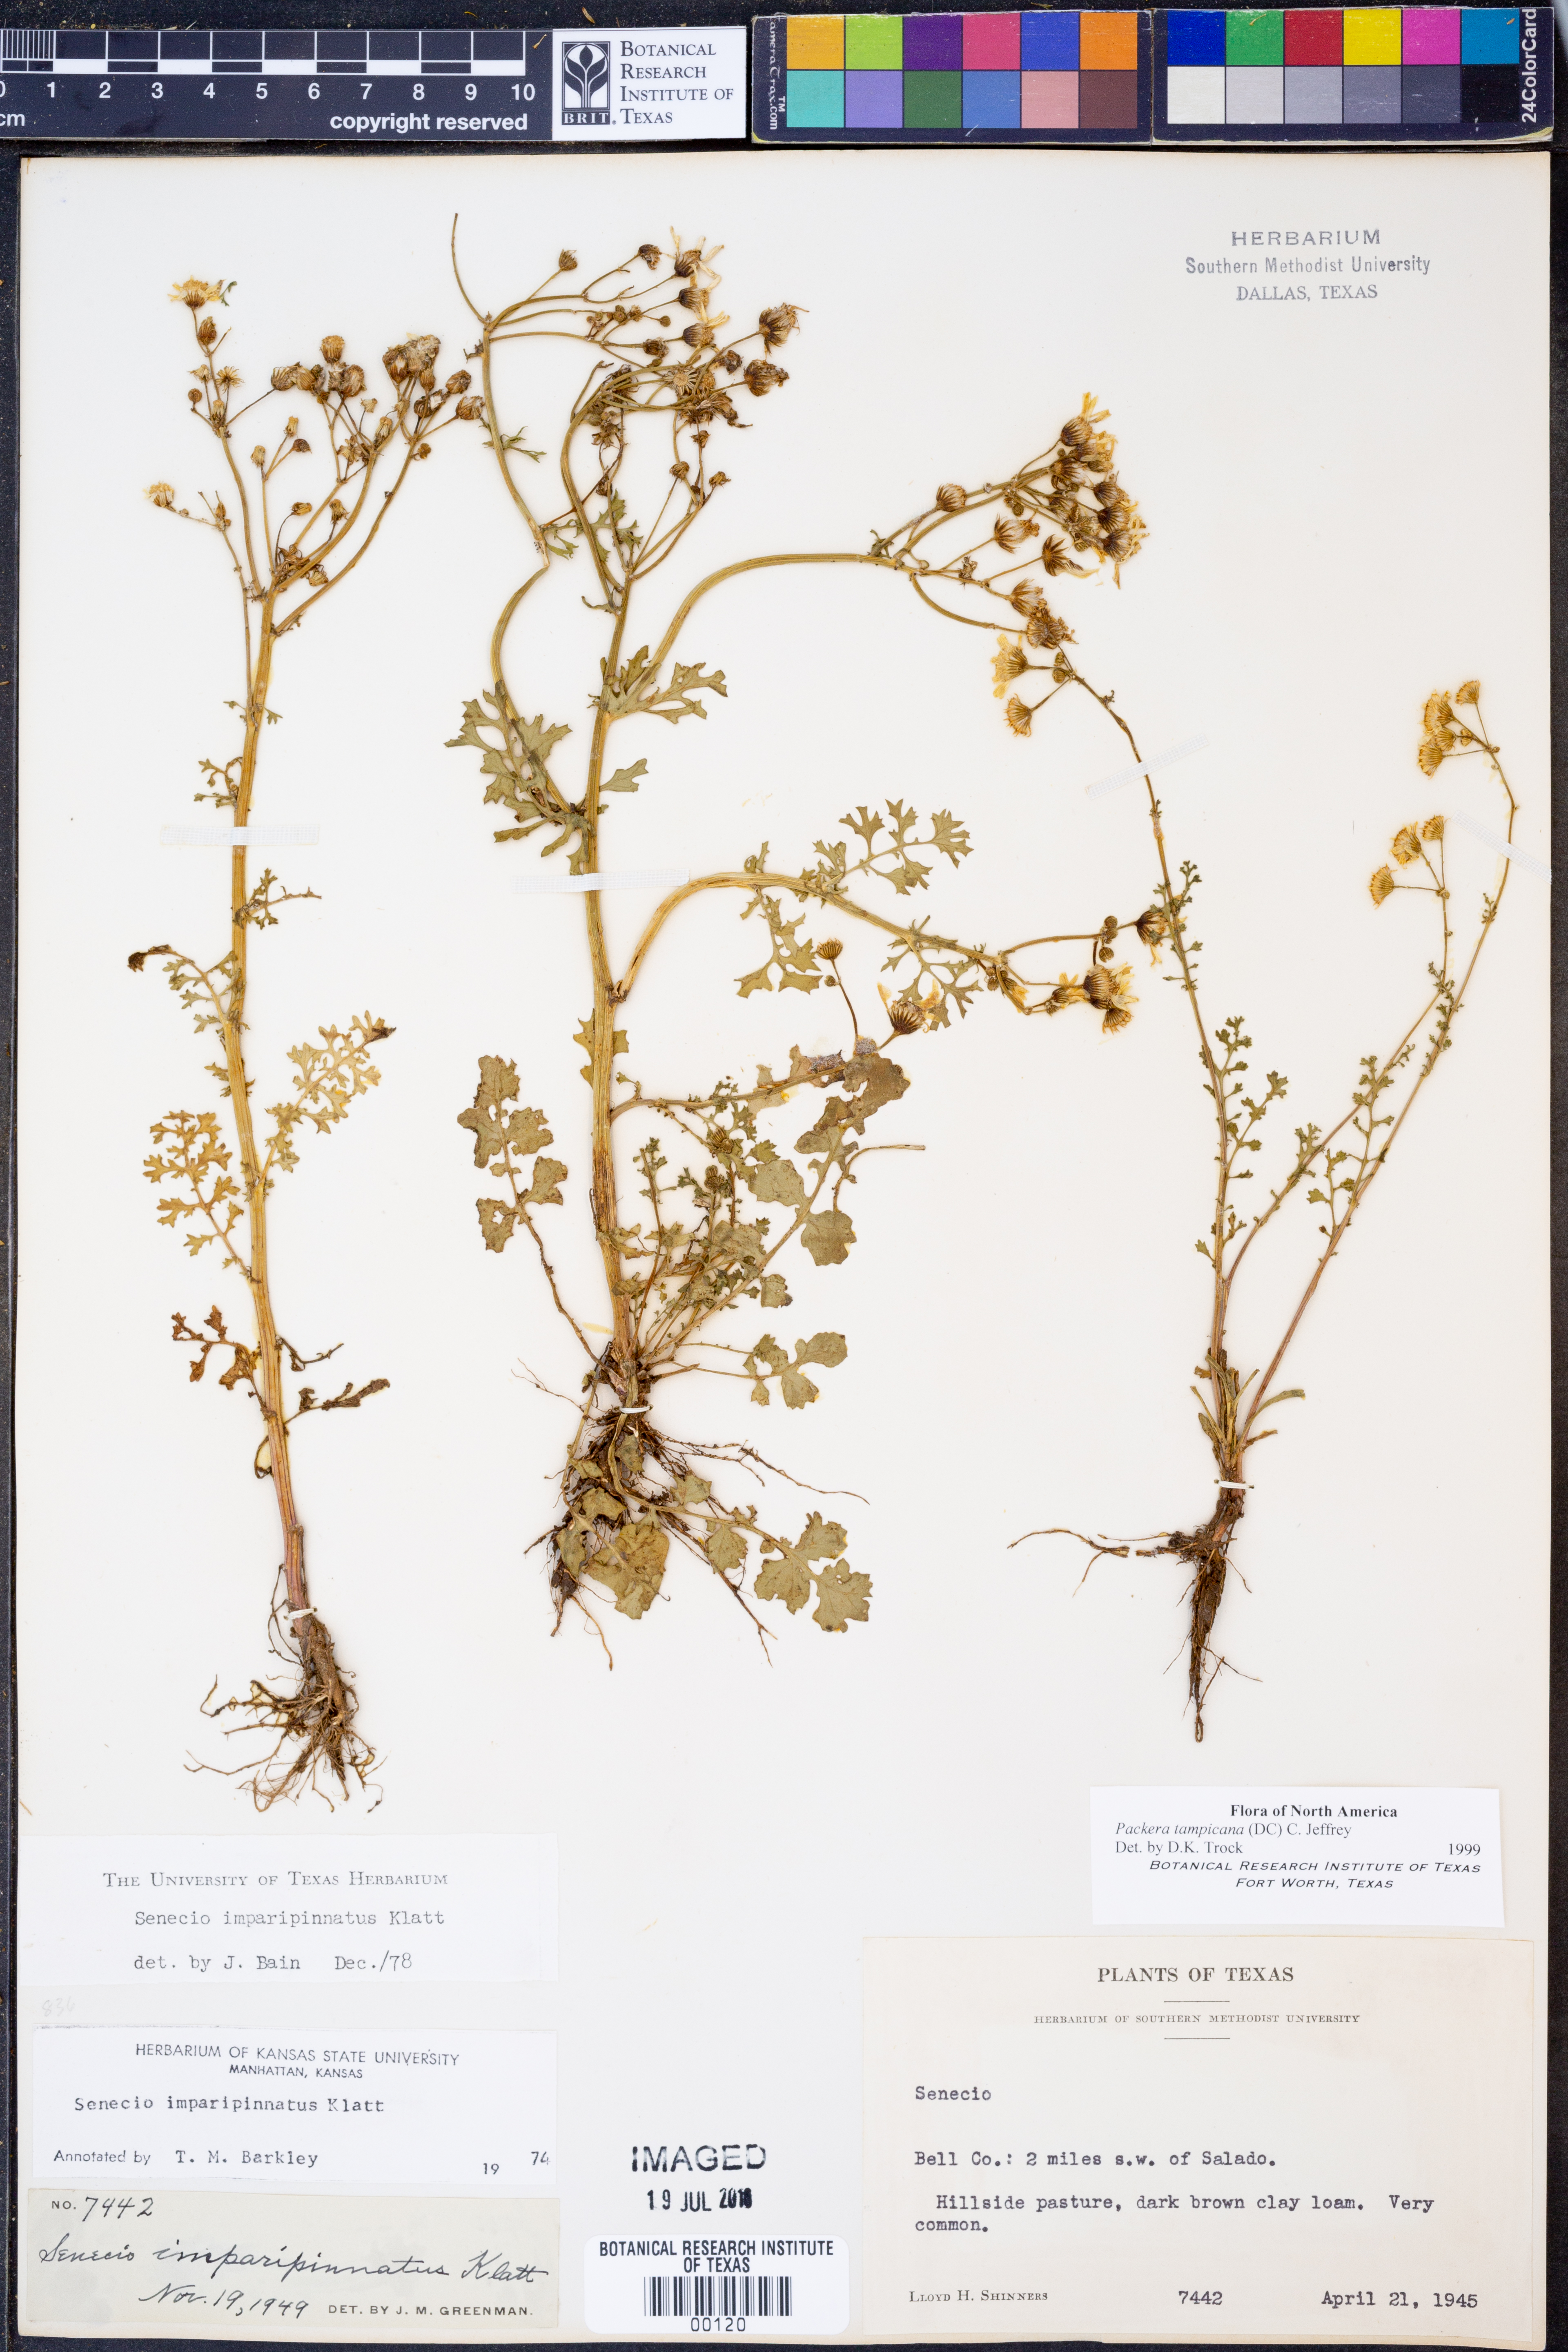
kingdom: Plantae
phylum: Tracheophyta
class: Magnoliopsida
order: Asterales
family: Asteraceae
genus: Packera
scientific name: Packera tampicana
